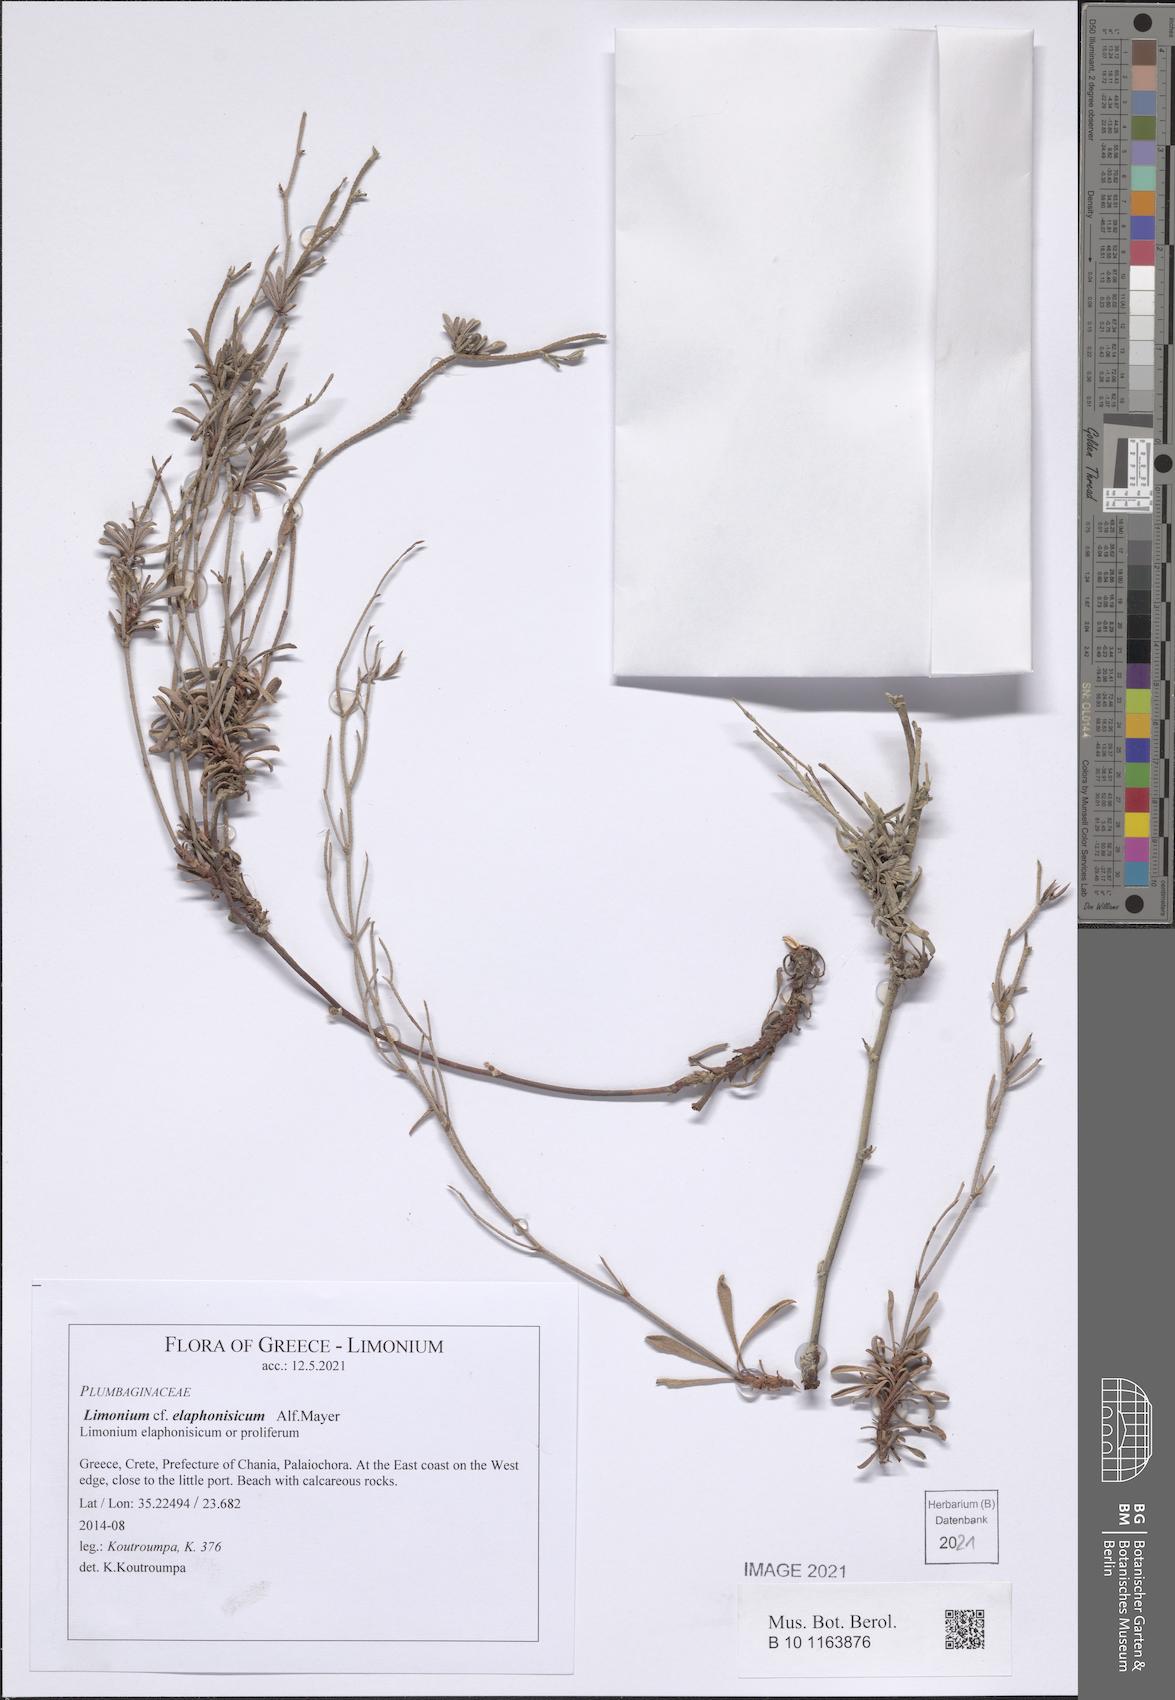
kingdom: Plantae
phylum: Tracheophyta
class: Magnoliopsida
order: Caryophyllales
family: Plumbaginaceae
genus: Limonium
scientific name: Limonium elaphonisicum
